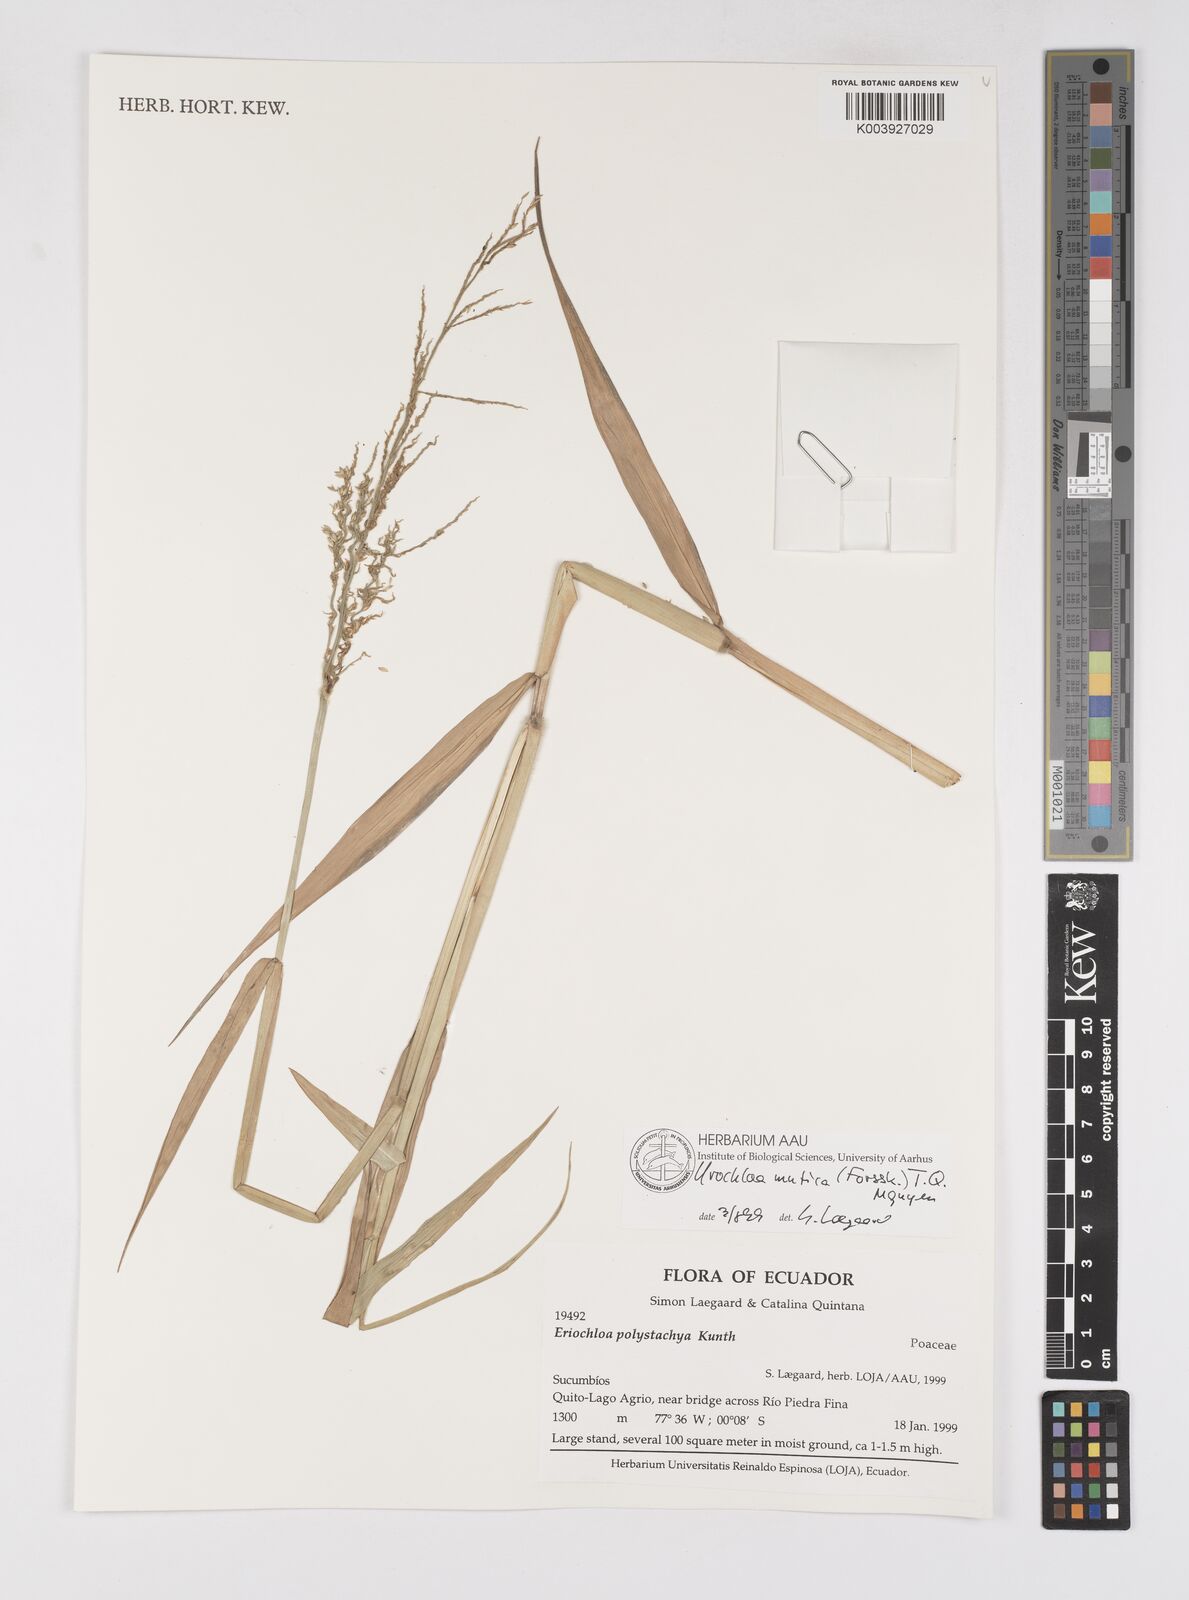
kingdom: Plantae
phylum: Tracheophyta
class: Liliopsida
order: Poales
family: Poaceae
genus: Urochloa
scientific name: Urochloa polystachya
